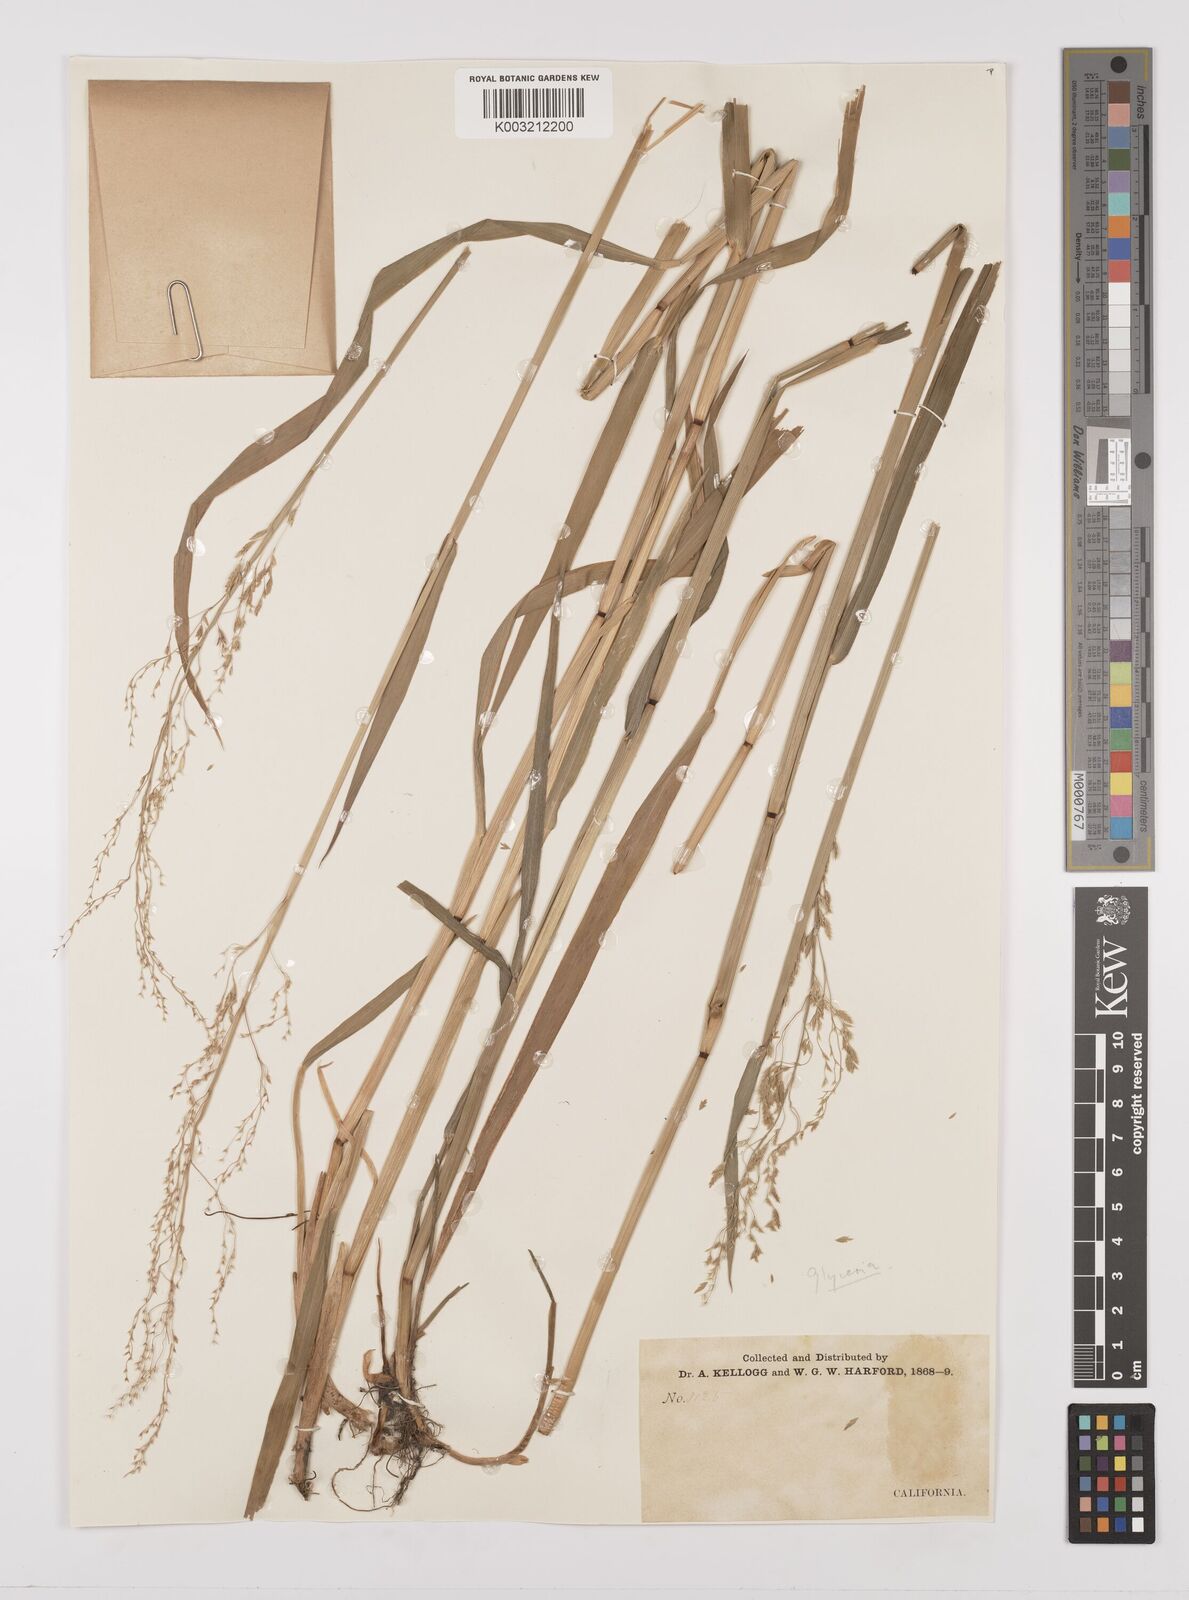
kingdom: Plantae
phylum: Tracheophyta
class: Liliopsida
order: Poales
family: Poaceae
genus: Glyceria
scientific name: Glyceria
